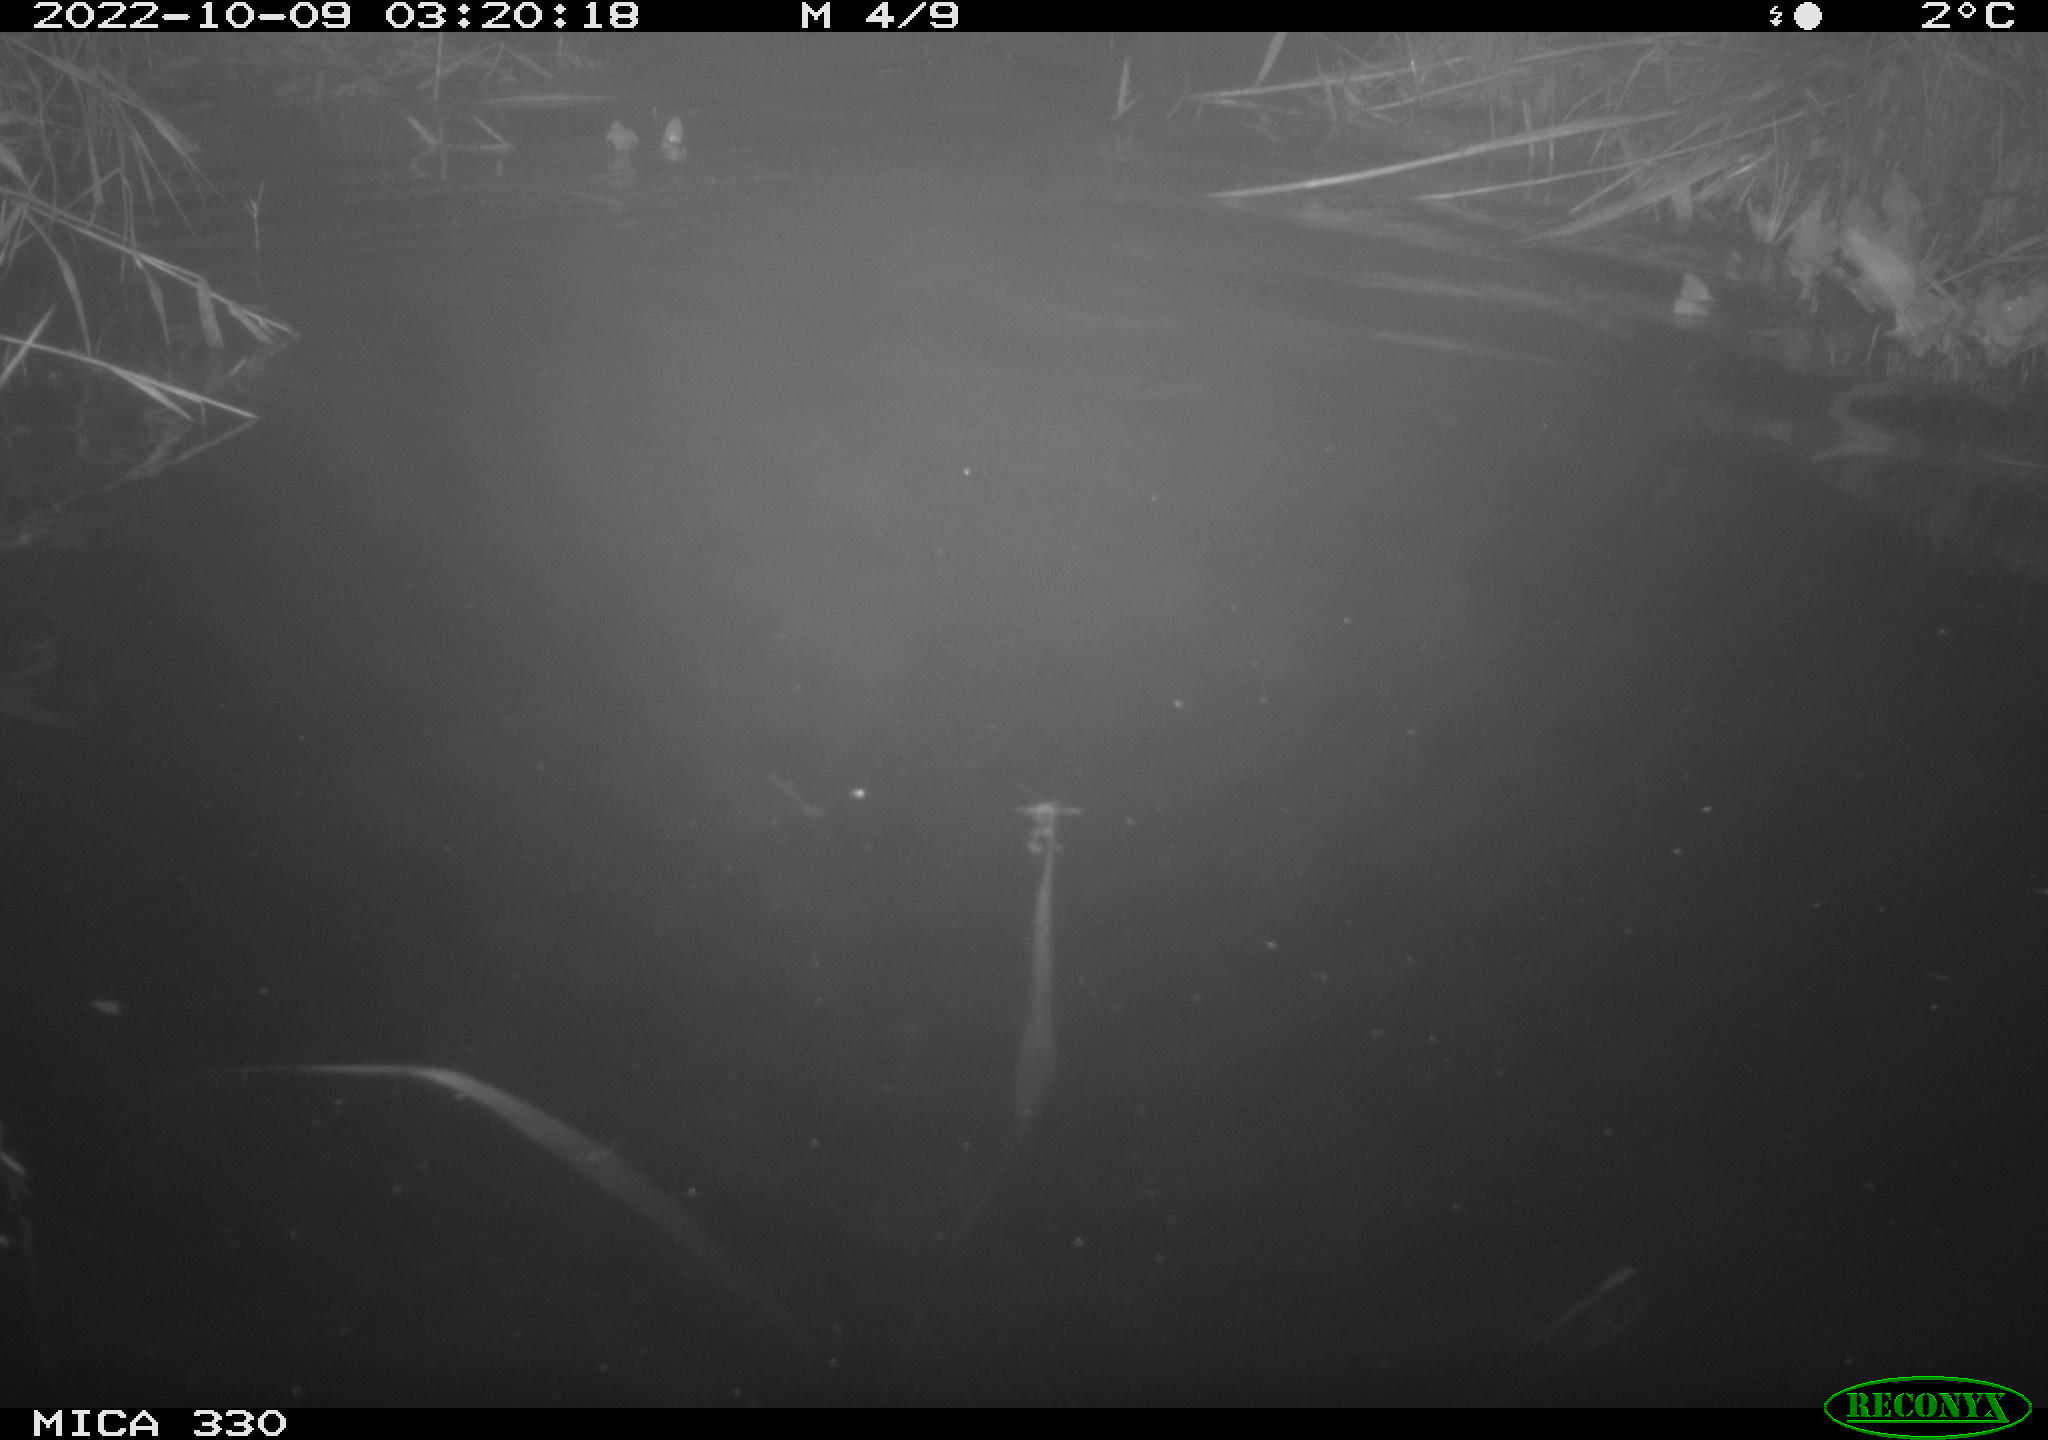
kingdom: Animalia
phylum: Chordata
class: Mammalia
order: Carnivora
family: Mustelidae
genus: Lutra
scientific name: Lutra lutra
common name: European otter
